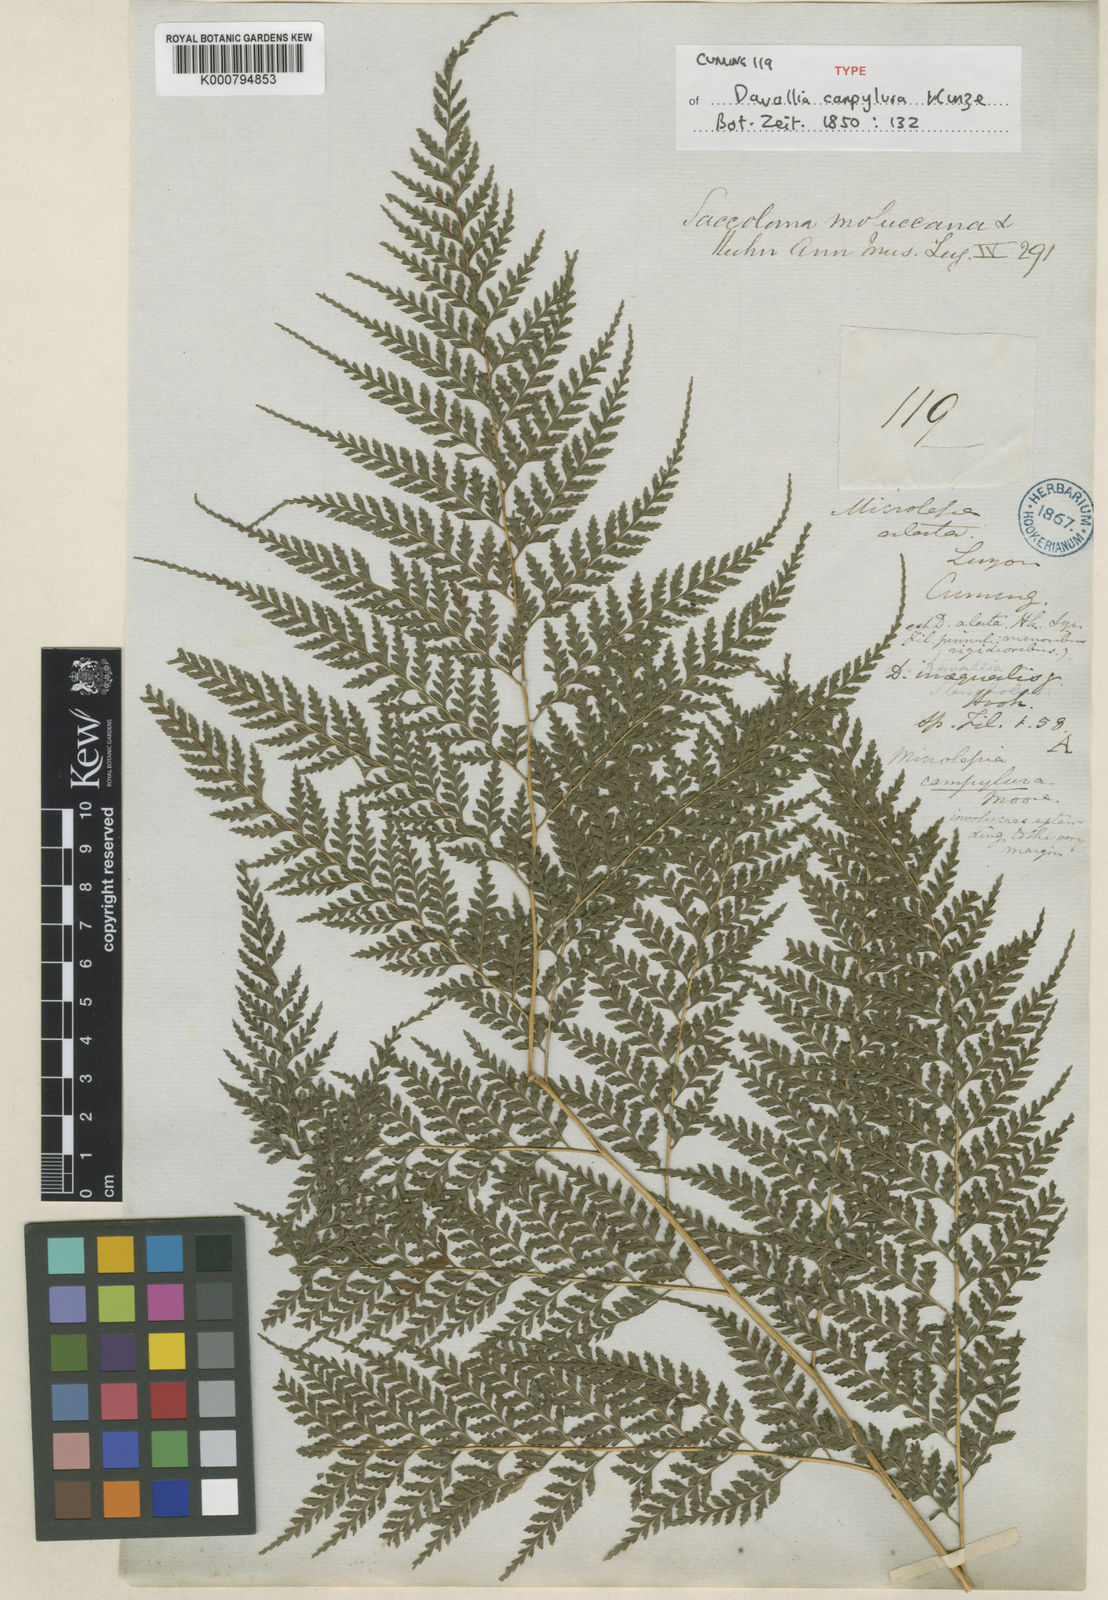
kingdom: Plantae
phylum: Tracheophyta
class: Polypodiopsida
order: Polypodiales
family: Saccolomataceae
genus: Orthiopteris
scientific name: Orthiopteris campylura
